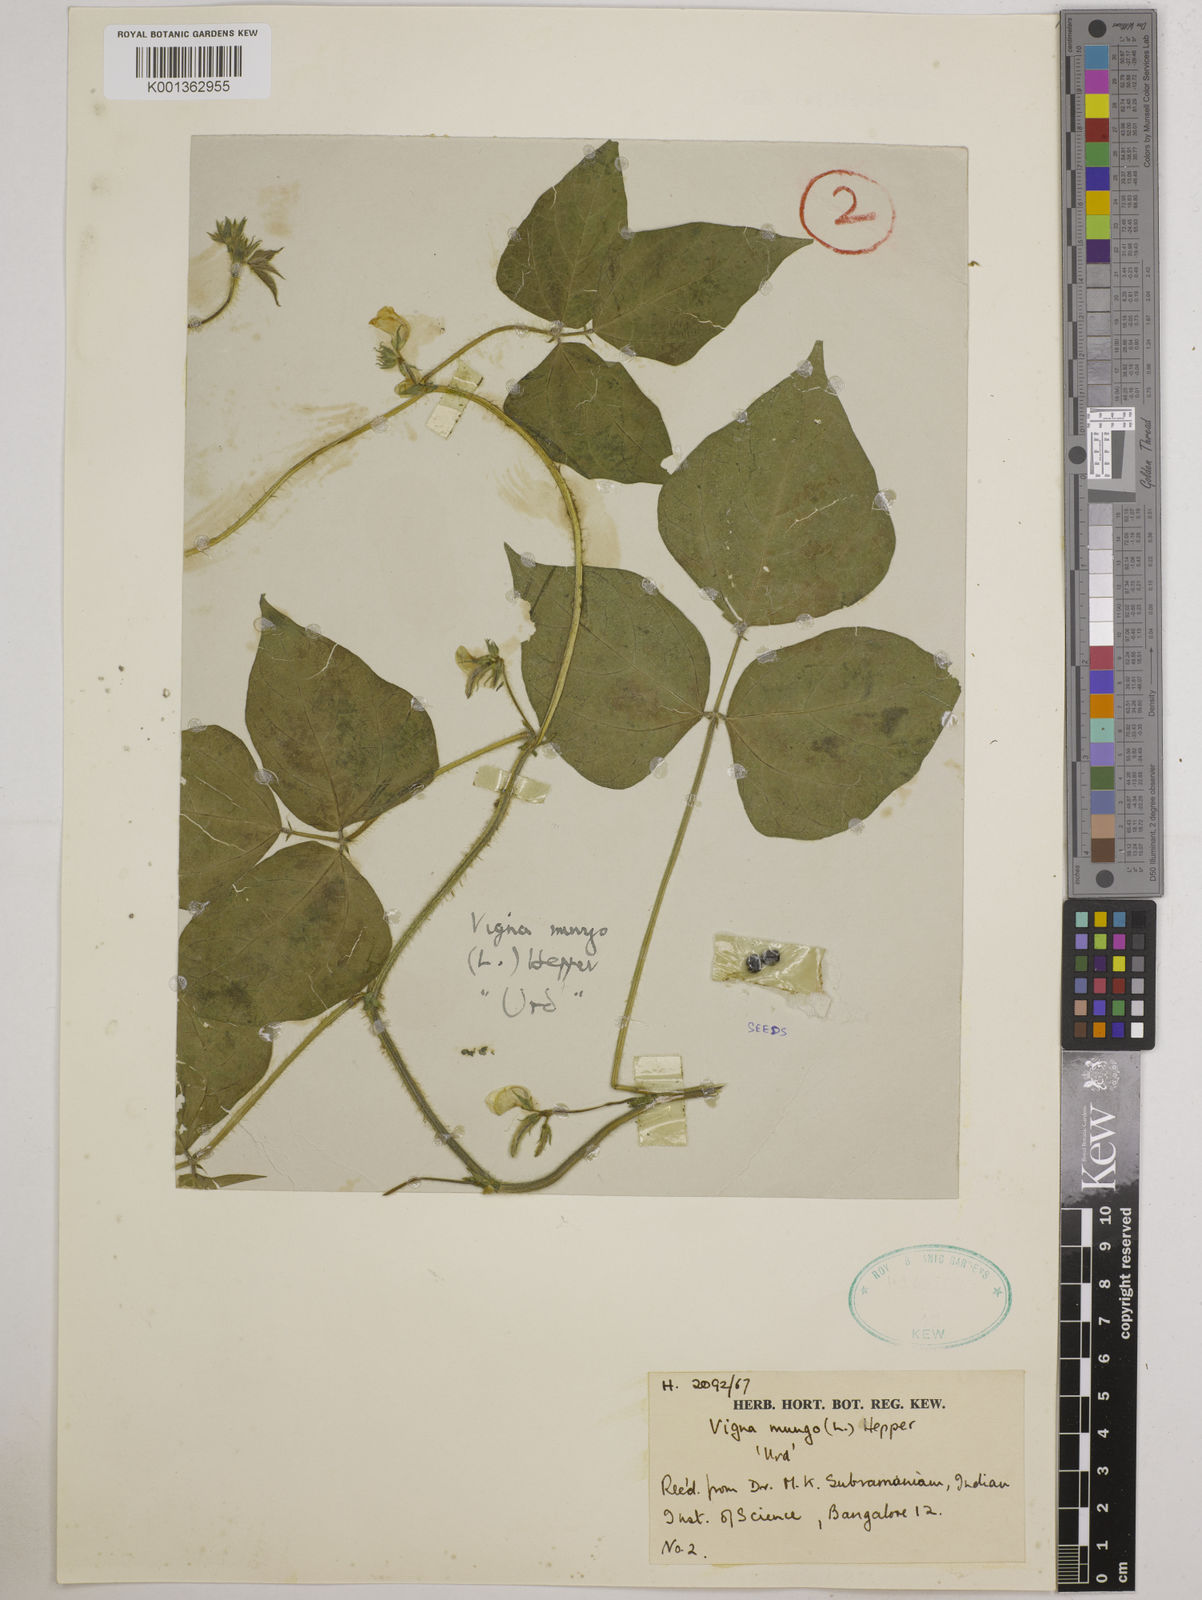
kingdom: Plantae
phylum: Tracheophyta
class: Magnoliopsida
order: Fabales
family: Fabaceae
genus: Vigna
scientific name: Vigna mungo
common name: Black gram
